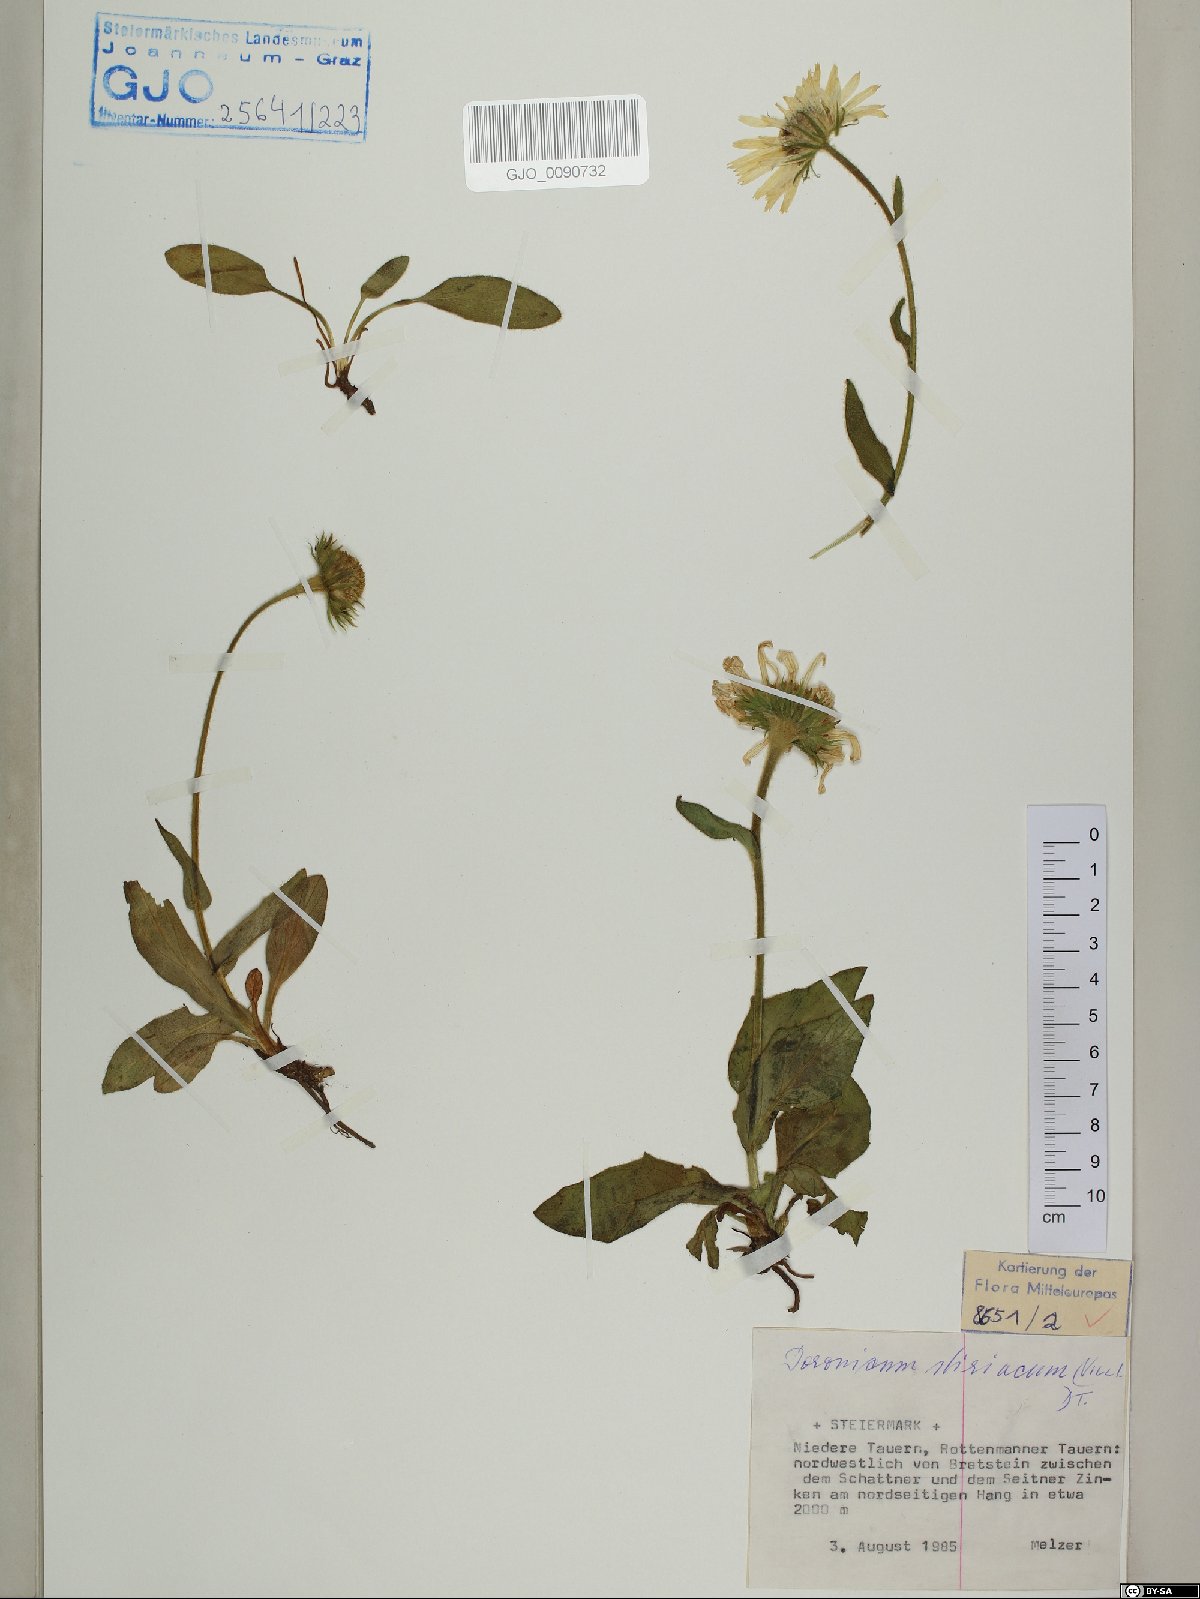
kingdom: Plantae
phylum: Tracheophyta
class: Magnoliopsida
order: Asterales
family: Asteraceae
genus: Doronicum
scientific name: Doronicum clusii
